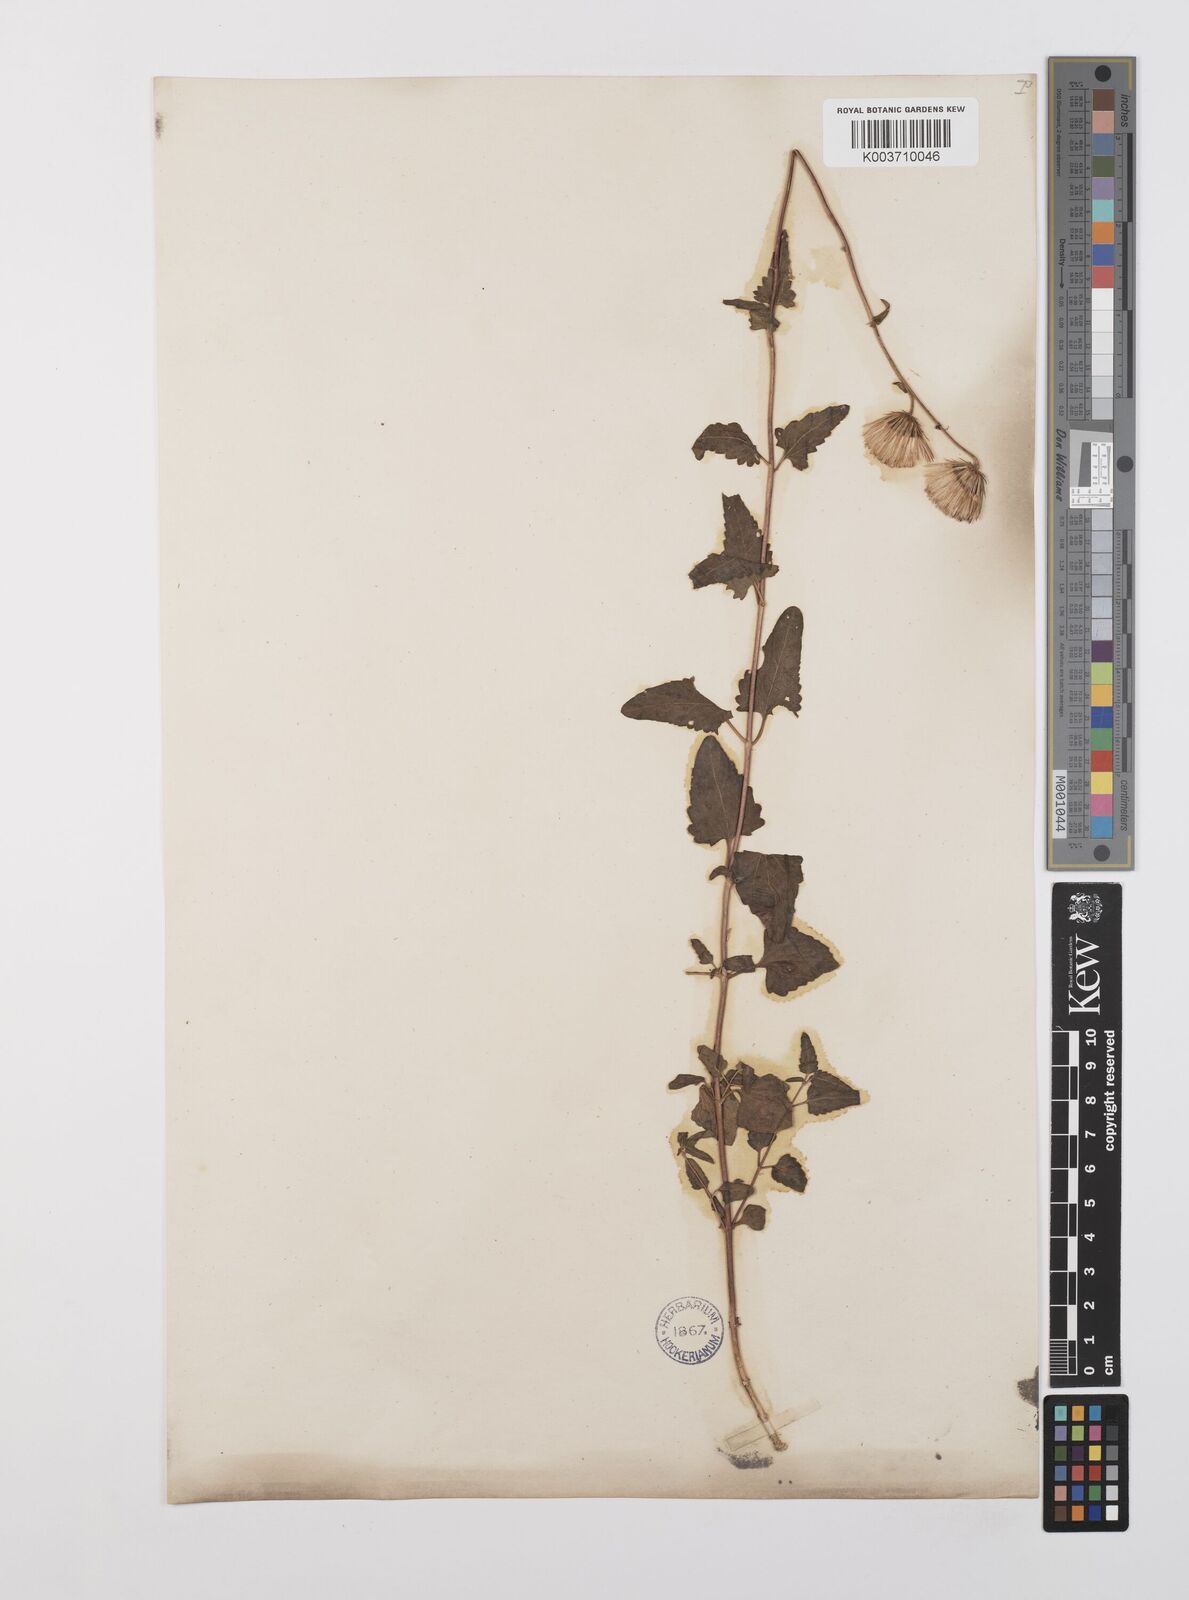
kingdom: Plantae
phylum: Tracheophyta
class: Magnoliopsida
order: Asterales
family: Asteraceae
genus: Brickellia
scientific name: Brickellia simplex
